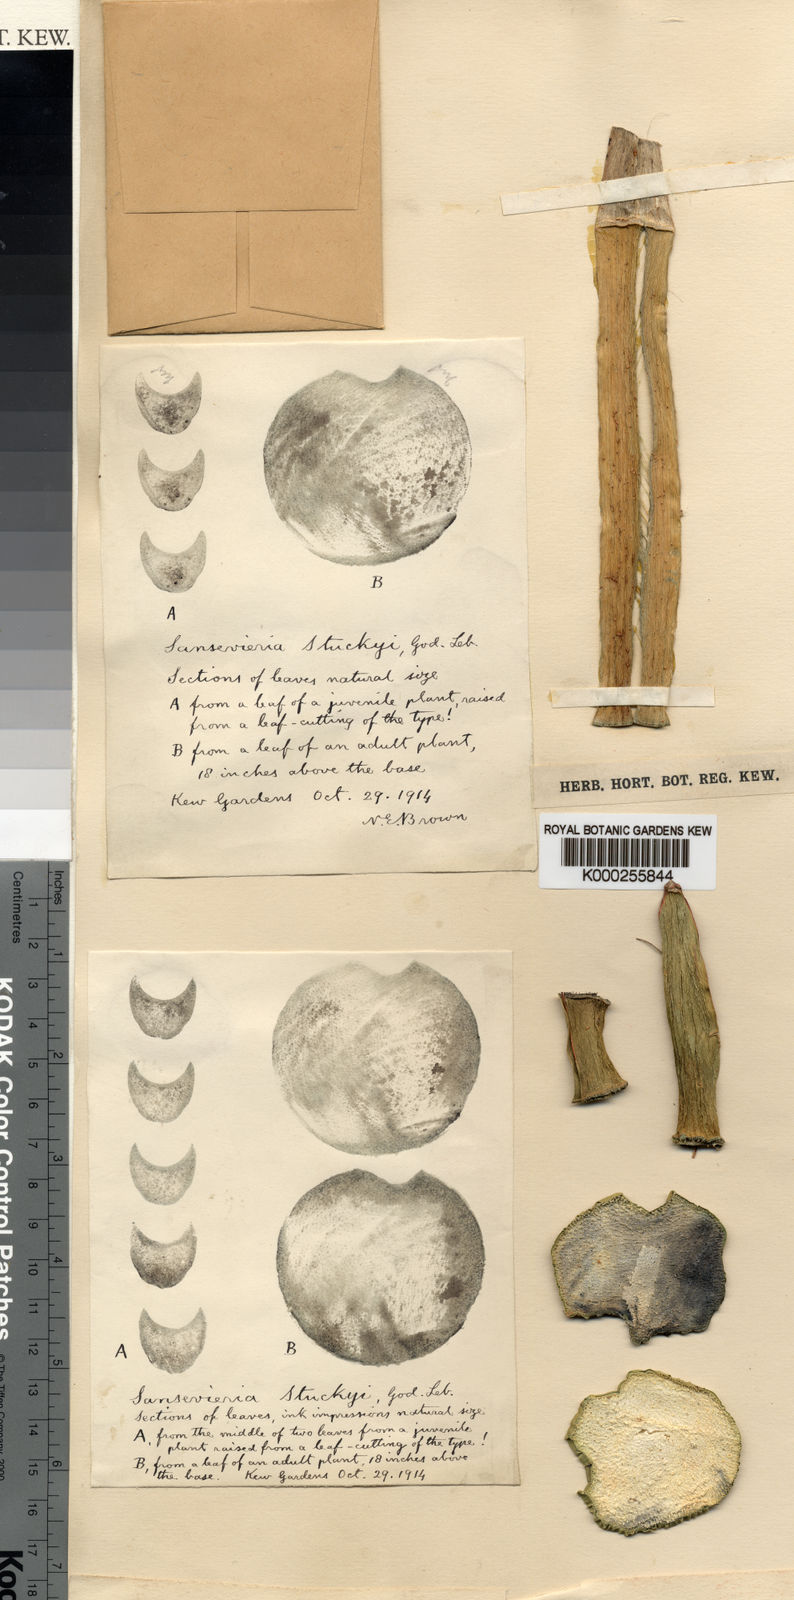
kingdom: Plantae
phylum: Tracheophyta
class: Liliopsida
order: Asparagales
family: Asparagaceae
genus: Dracaena
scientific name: Dracaena stuckyi
